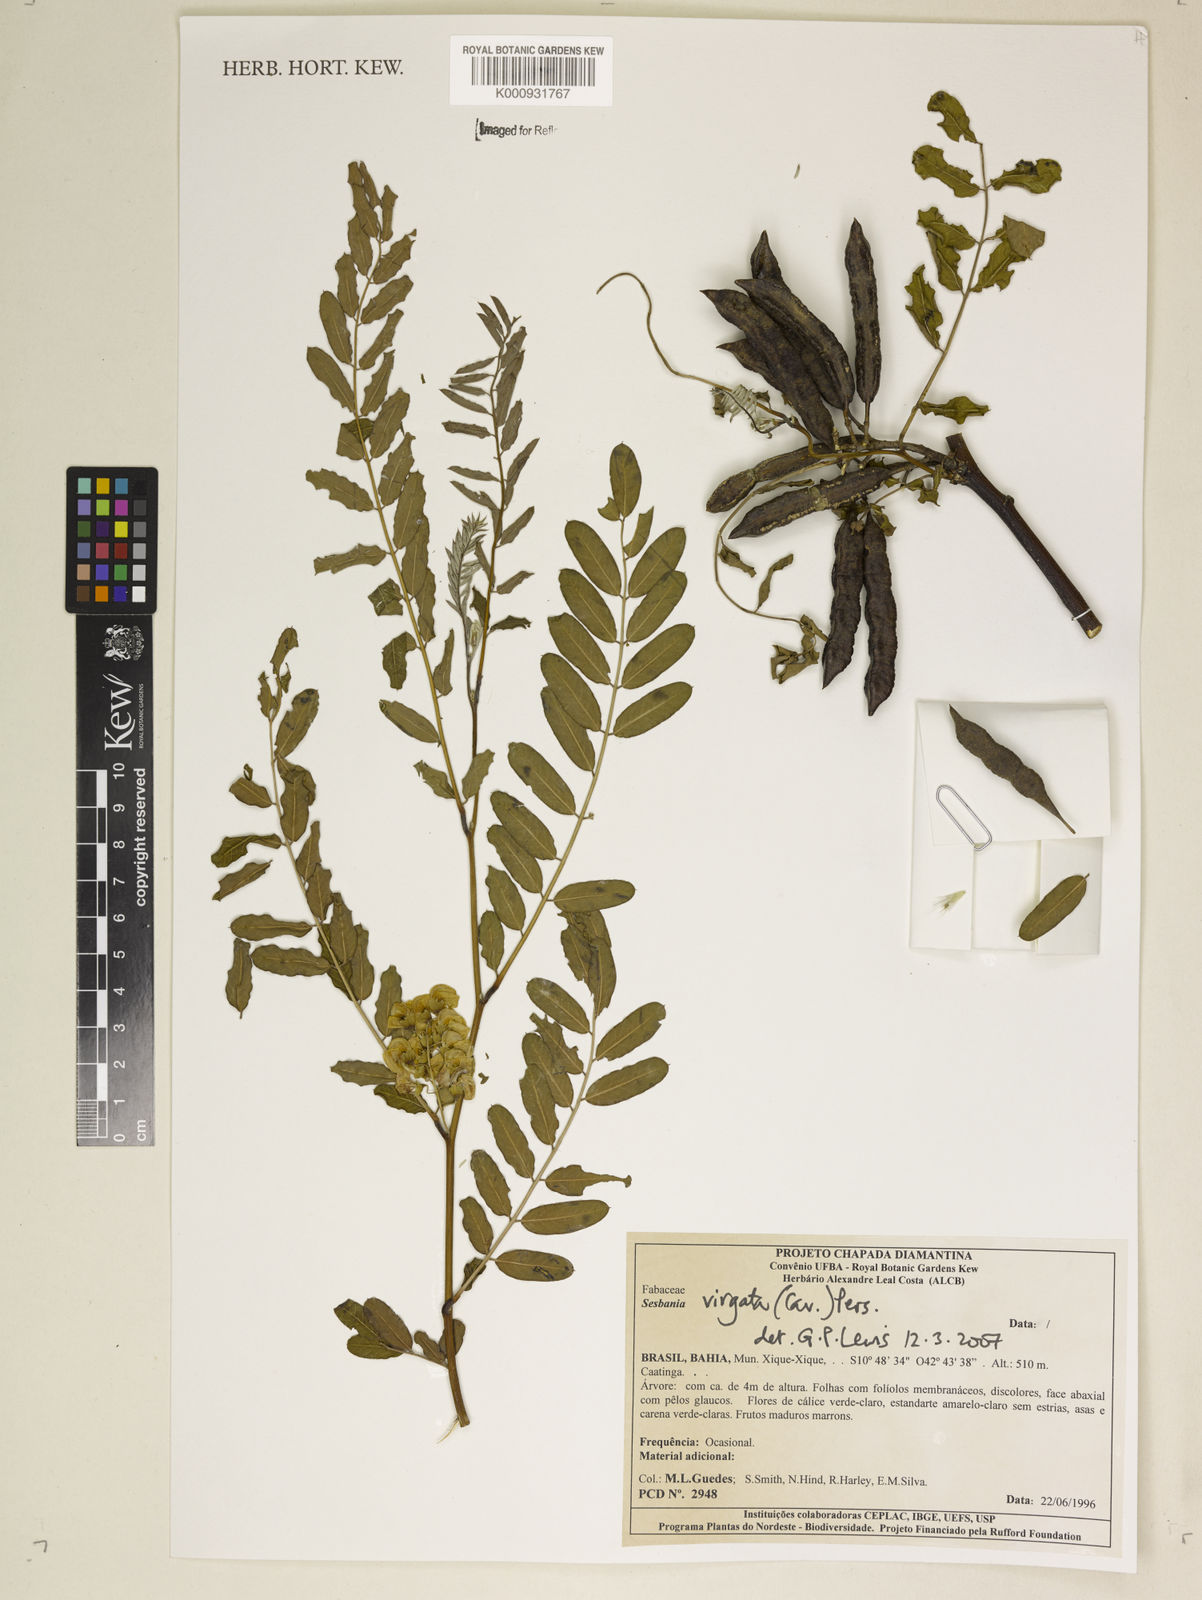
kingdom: Plantae
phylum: Tracheophyta
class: Magnoliopsida
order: Fabales
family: Fabaceae
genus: Sesbania
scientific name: Sesbania
